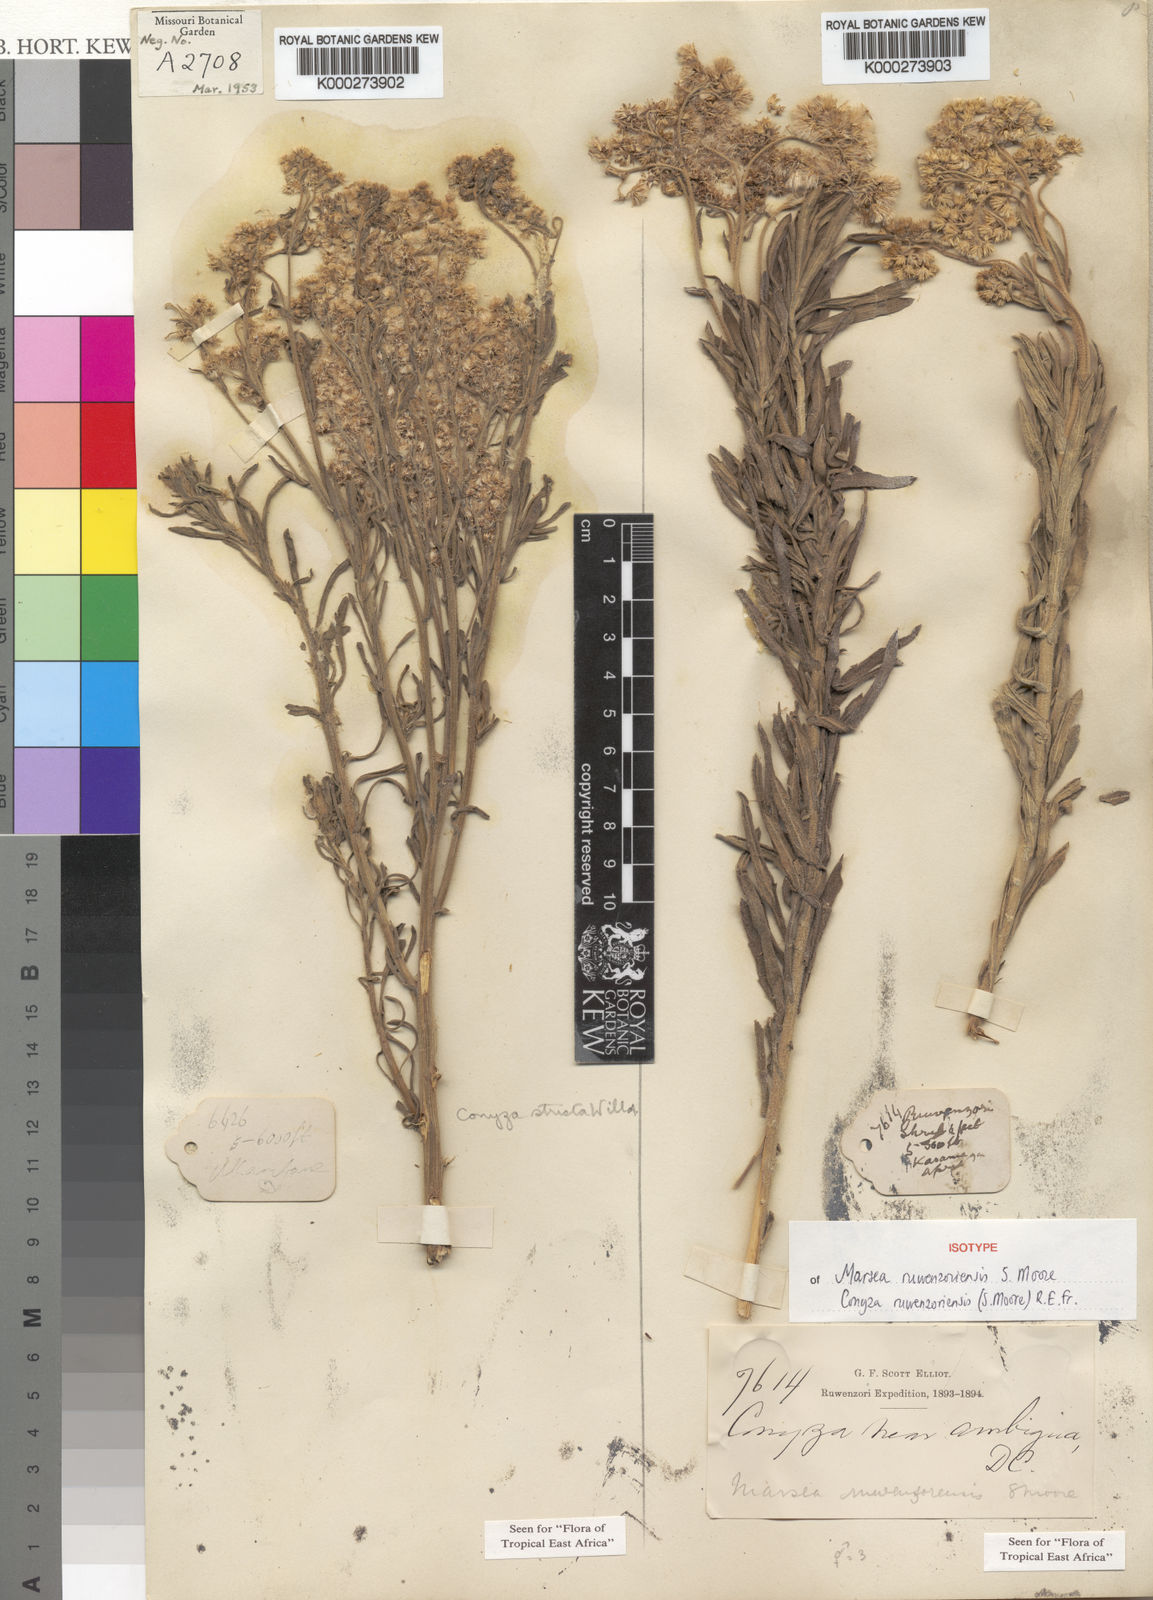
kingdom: Plantae
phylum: Tracheophyta
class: Magnoliopsida
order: Asterales
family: Asteraceae
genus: Nidorella
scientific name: Nidorella welwitschii
